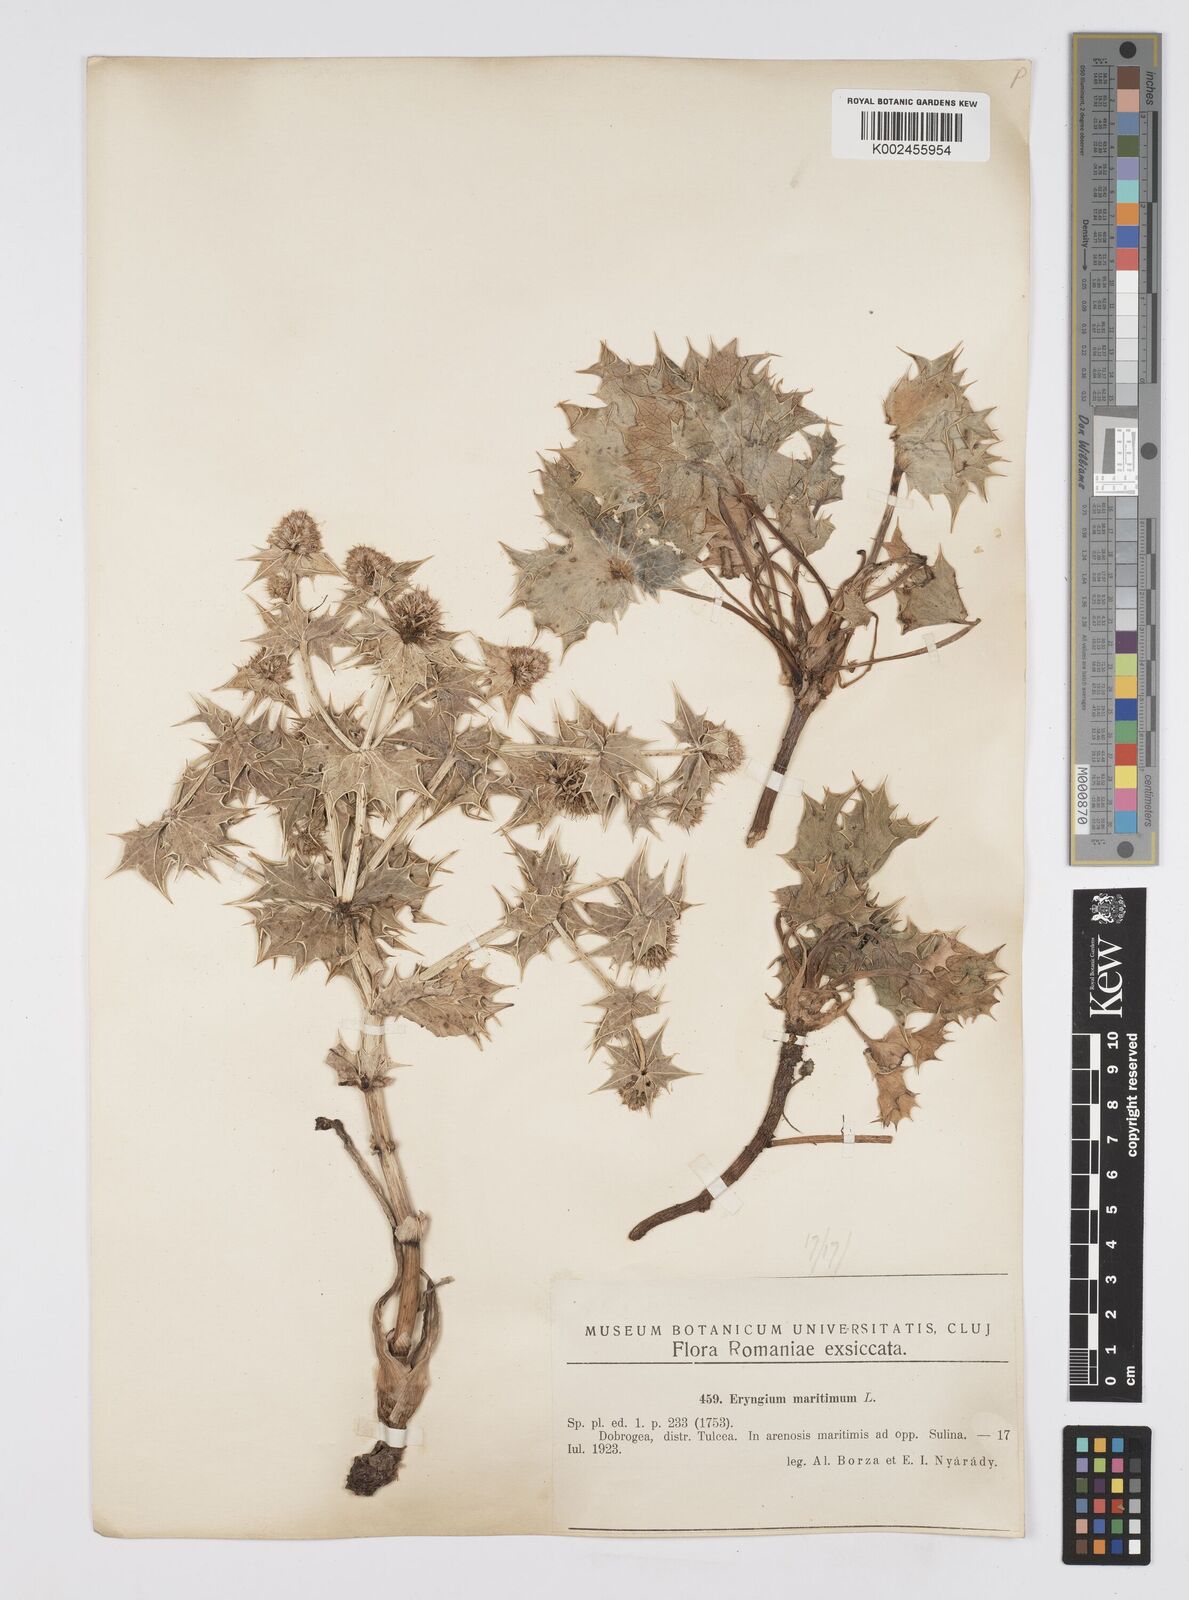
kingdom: Plantae
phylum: Tracheophyta
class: Magnoliopsida
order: Apiales
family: Apiaceae
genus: Eryngium
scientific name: Eryngium maritimum
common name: Sea-holly
